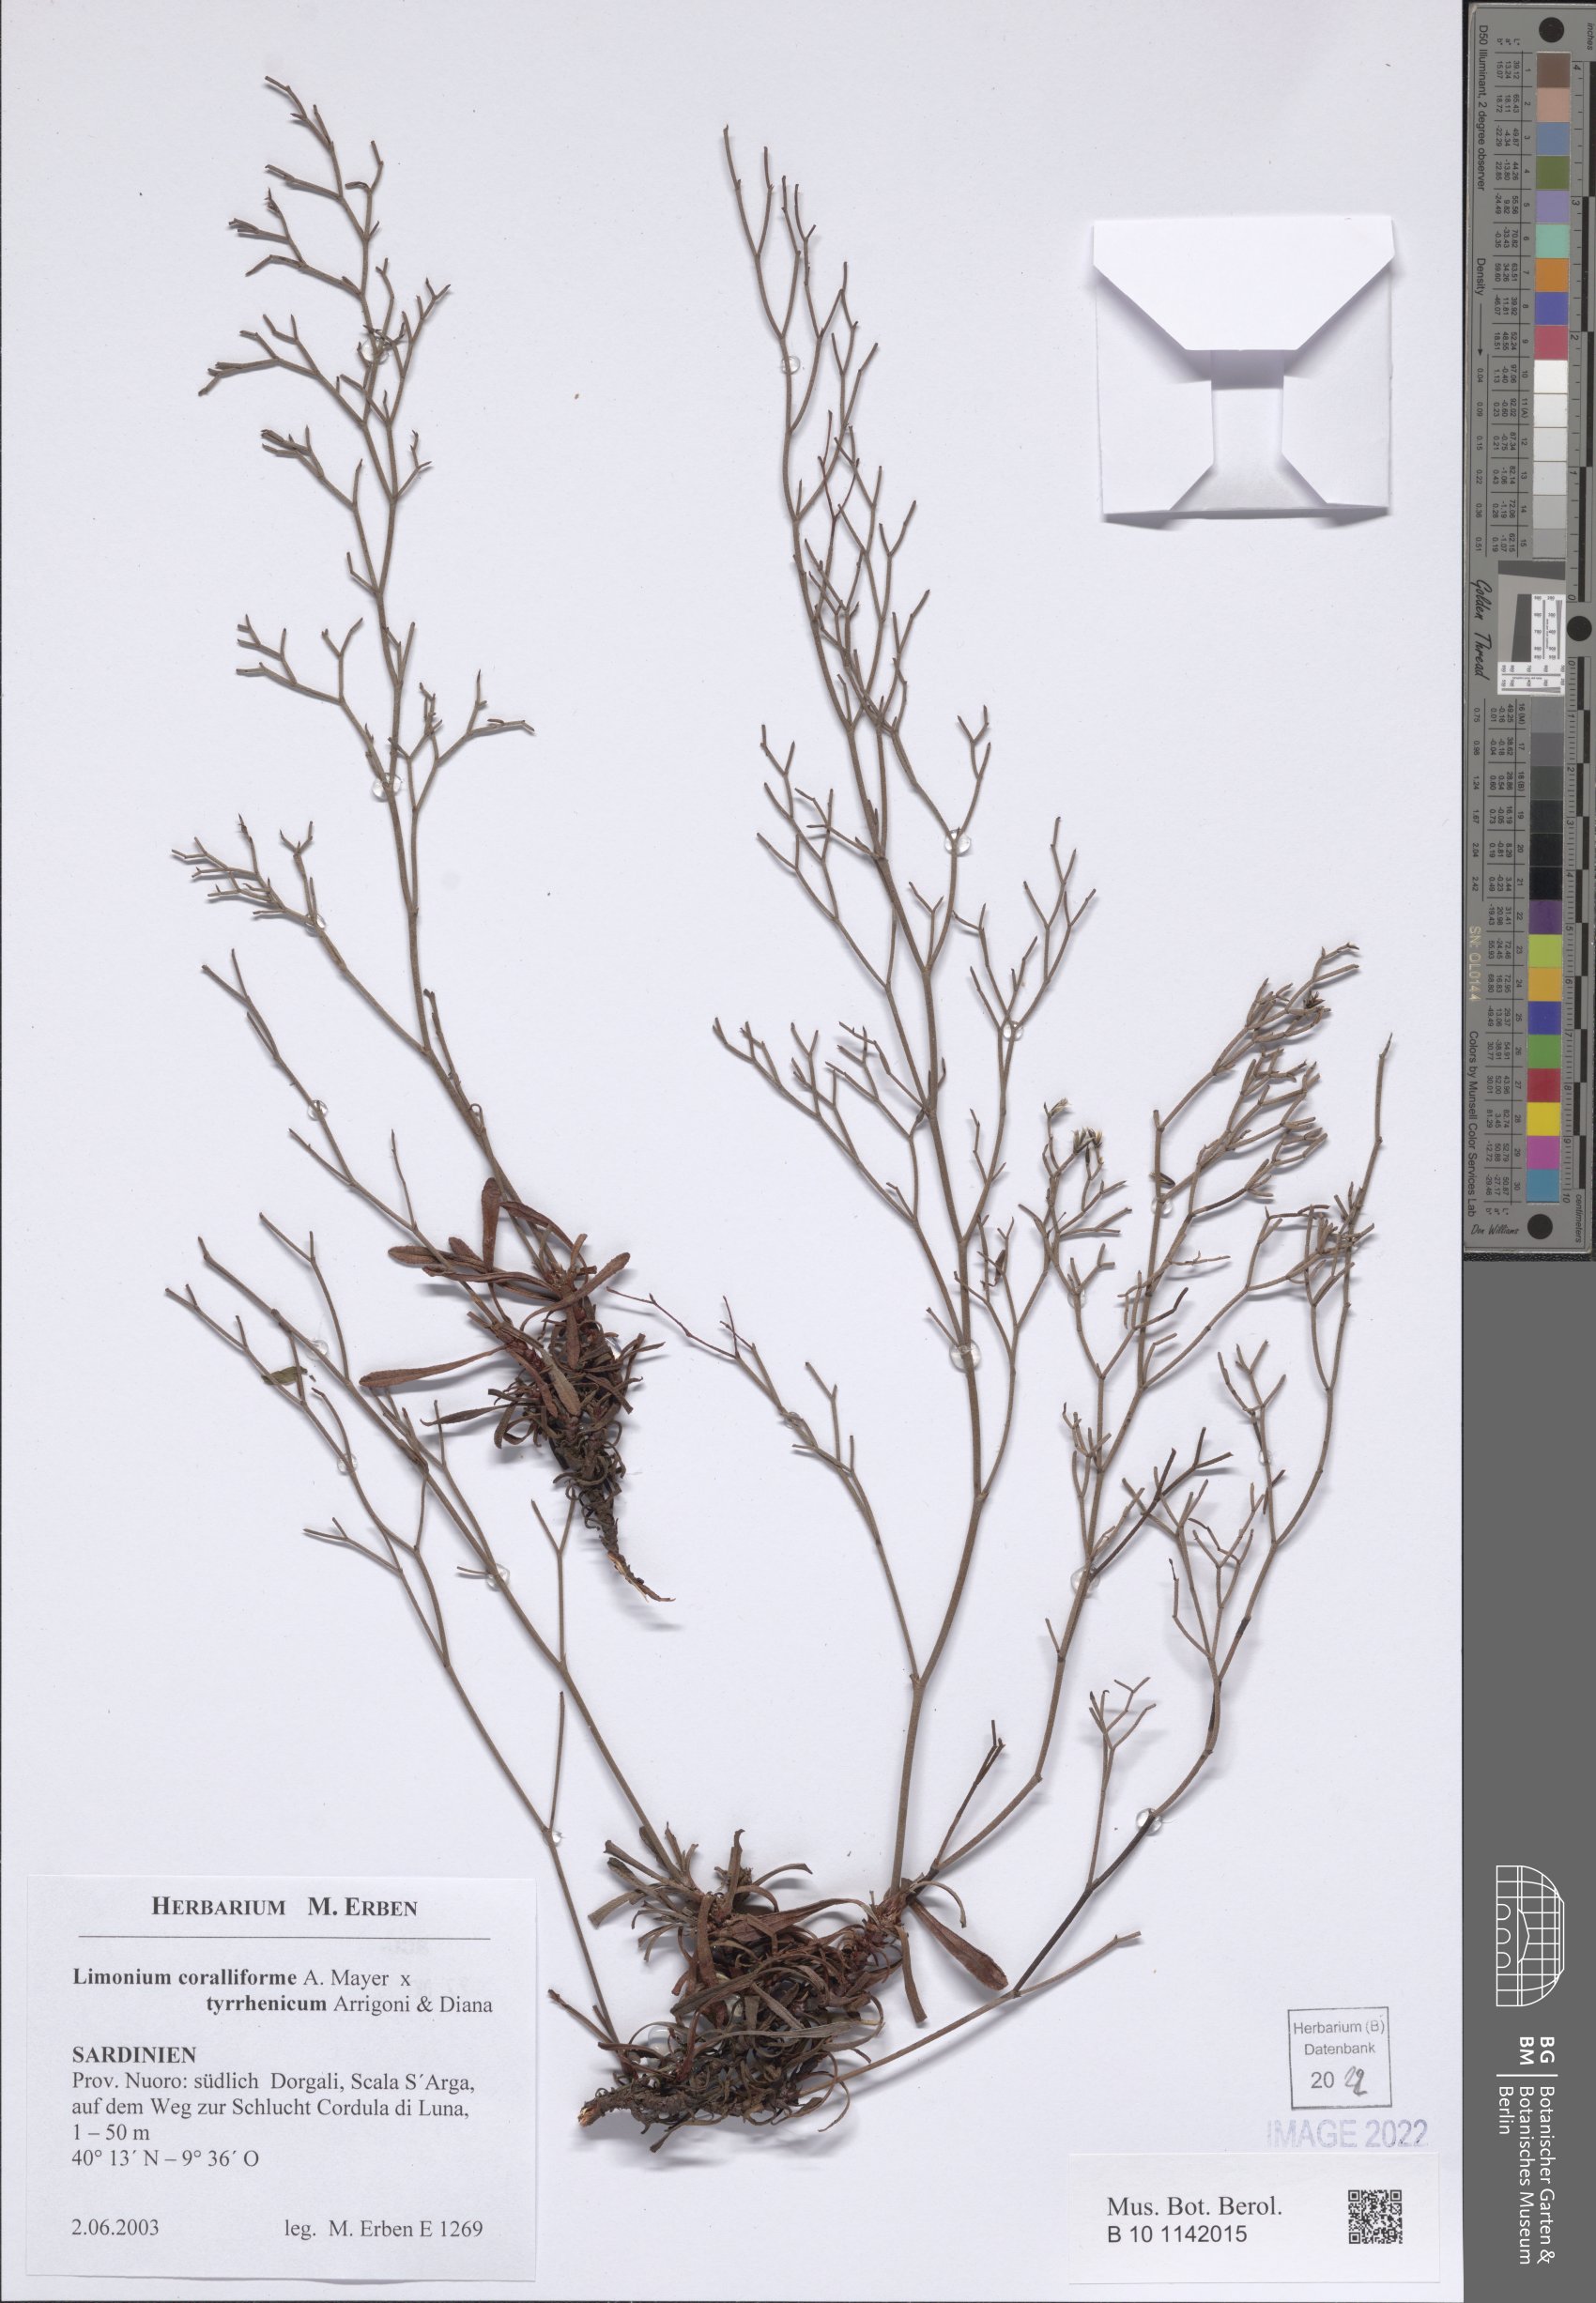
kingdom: Plantae
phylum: Tracheophyta
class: Magnoliopsida
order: Caryophyllales
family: Plumbaginaceae
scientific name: Plumbaginaceae
